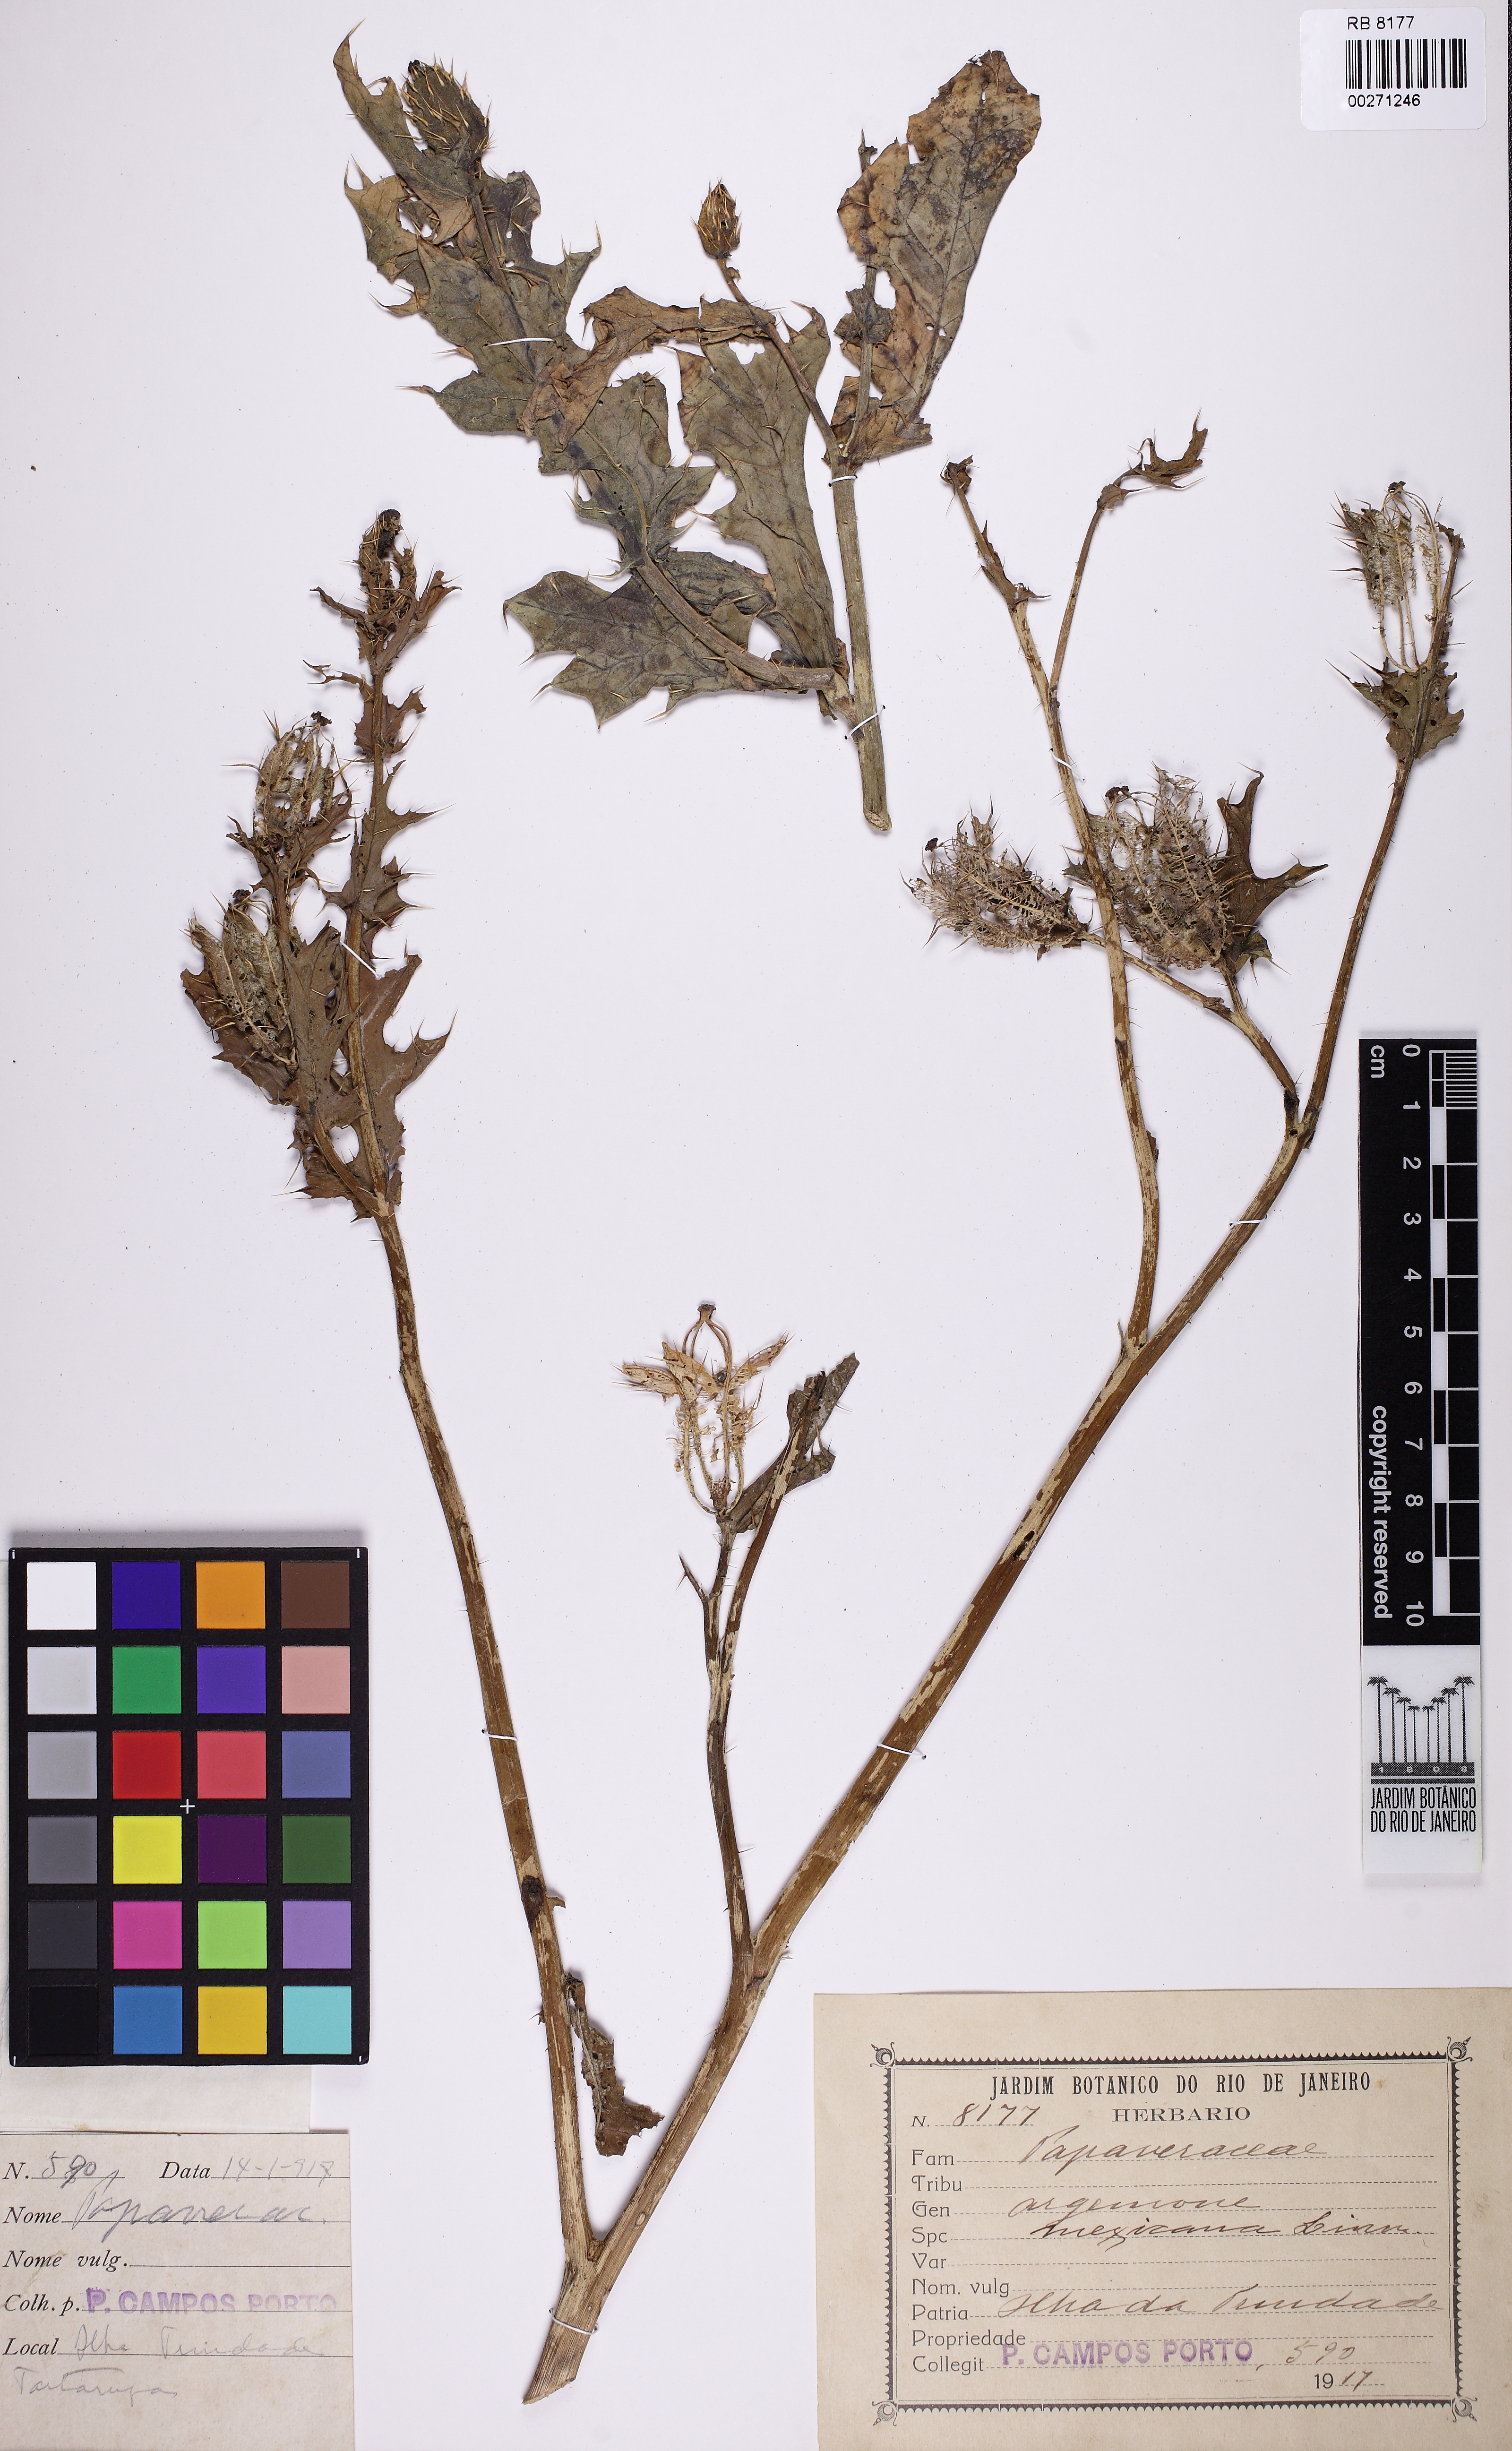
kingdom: Plantae
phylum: Tracheophyta
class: Magnoliopsida
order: Ranunculales
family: Papaveraceae
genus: Argemone
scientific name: Argemone mexicana
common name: Mexican poppy
